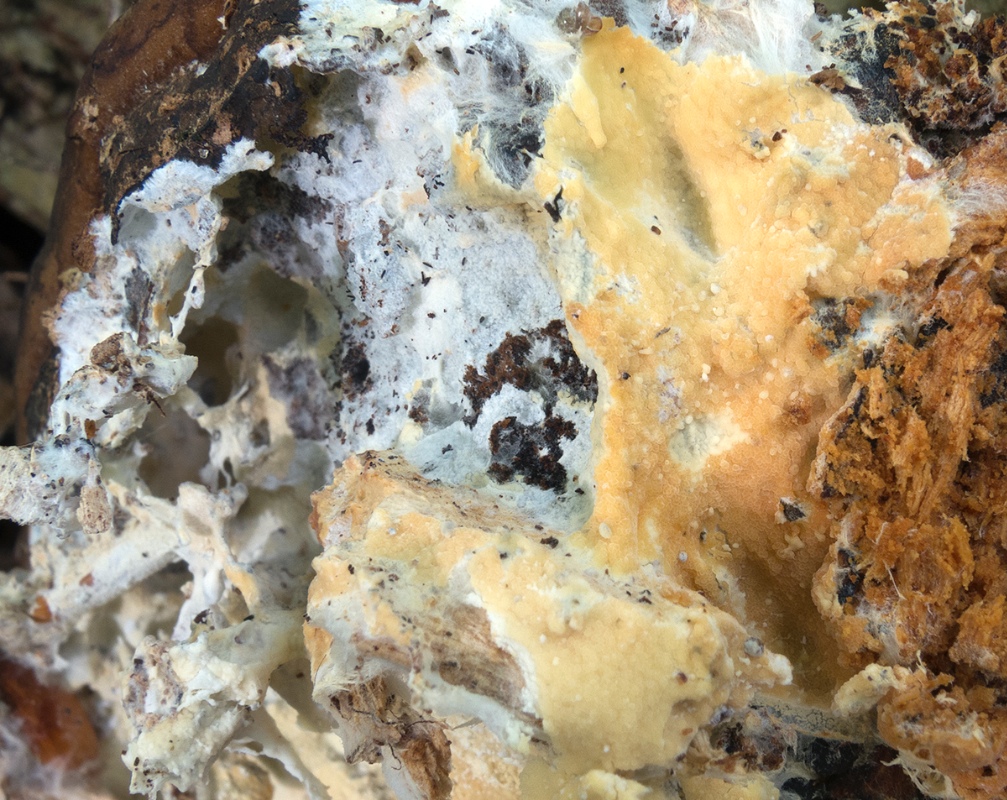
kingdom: Fungi
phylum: Basidiomycota
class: Agaricomycetes
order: Atheliales
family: Atheliaceae
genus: Leptosporomyces
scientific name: Leptosporomyces galzinii
